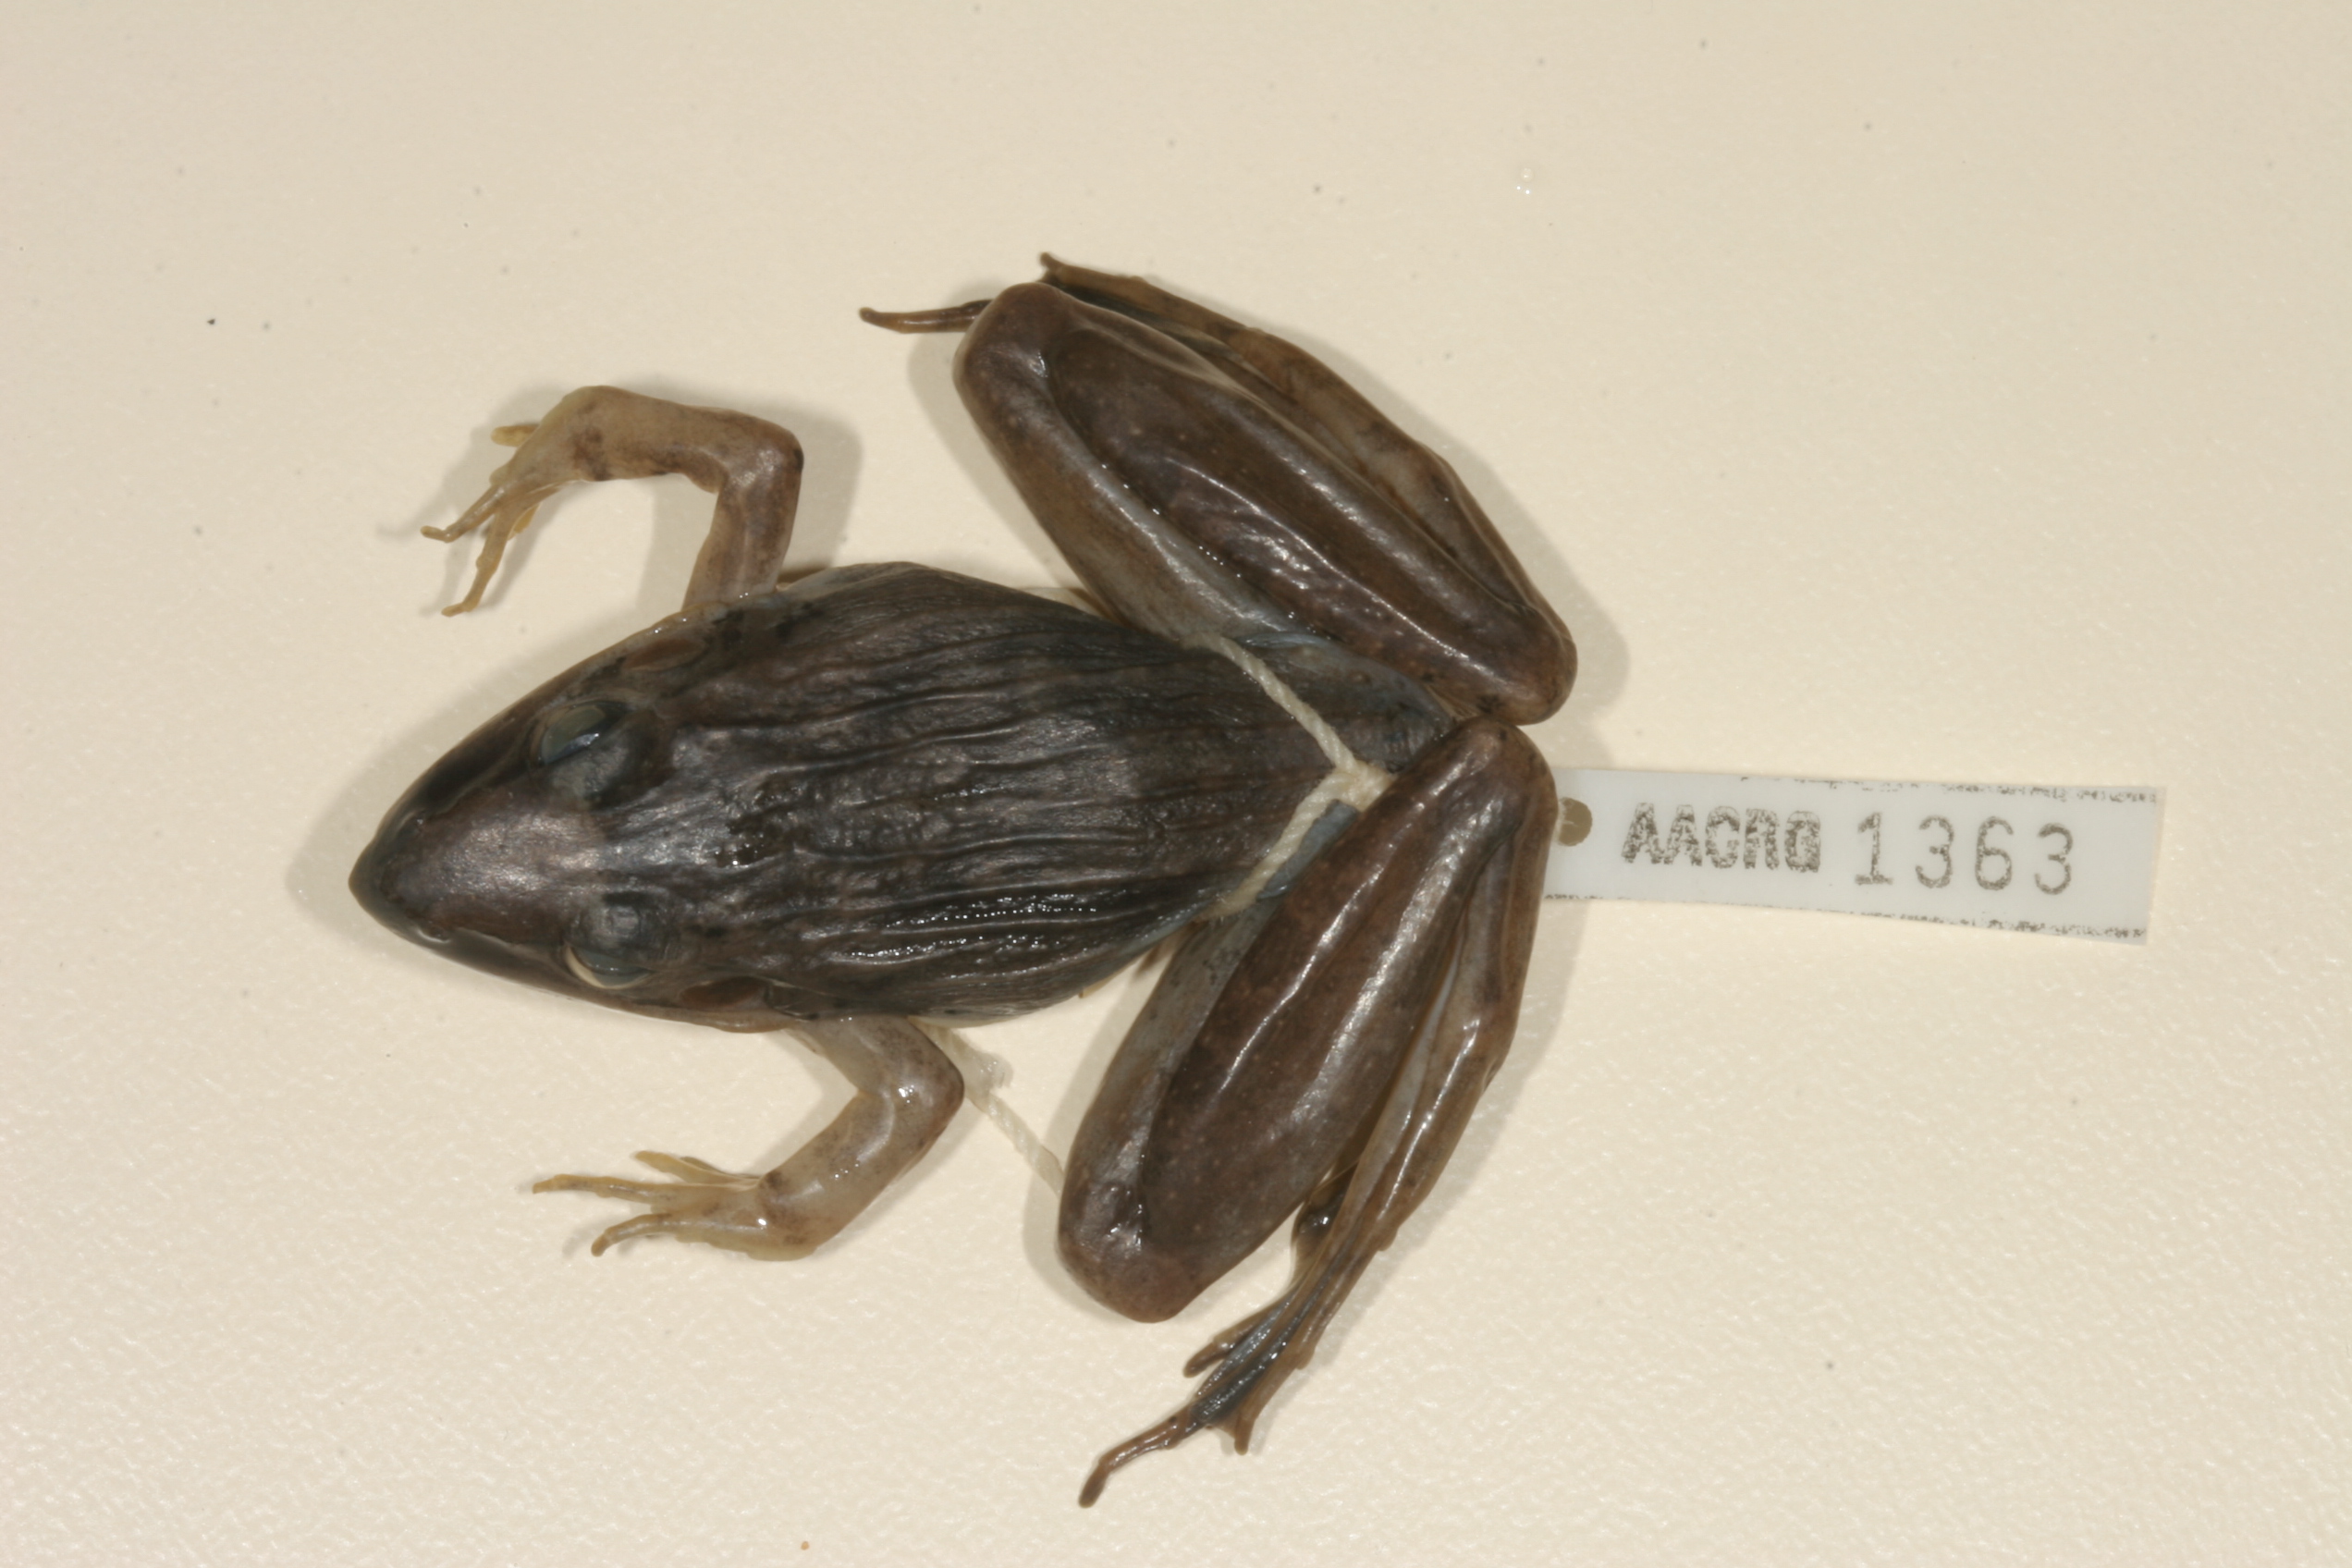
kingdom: Animalia
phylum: Chordata
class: Amphibia
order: Anura
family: Ptychadenidae
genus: Ptychadena
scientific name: Ptychadena anchietae
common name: Anchieta's ridged frog
